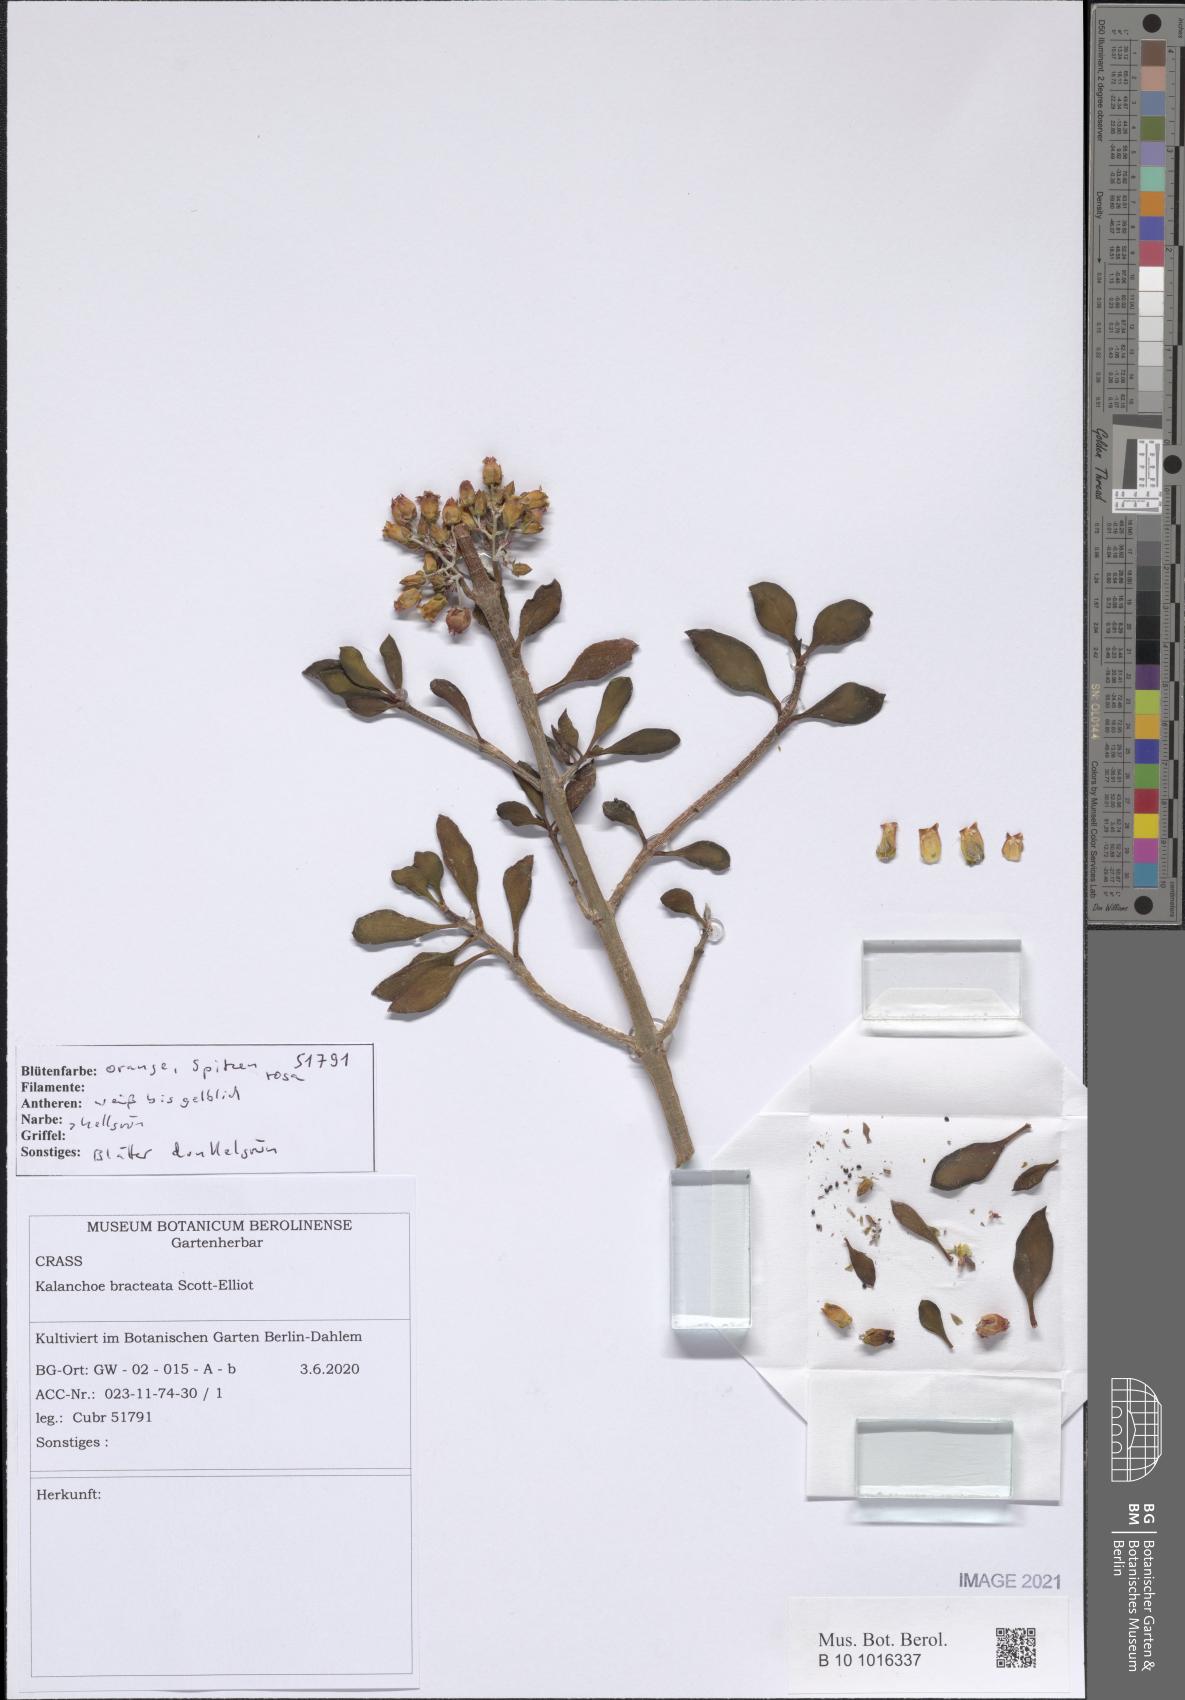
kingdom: Plantae
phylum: Tracheophyta
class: Magnoliopsida
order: Saxifragales
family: Crassulaceae
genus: Kalanchoe
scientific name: Kalanchoe bracteata
